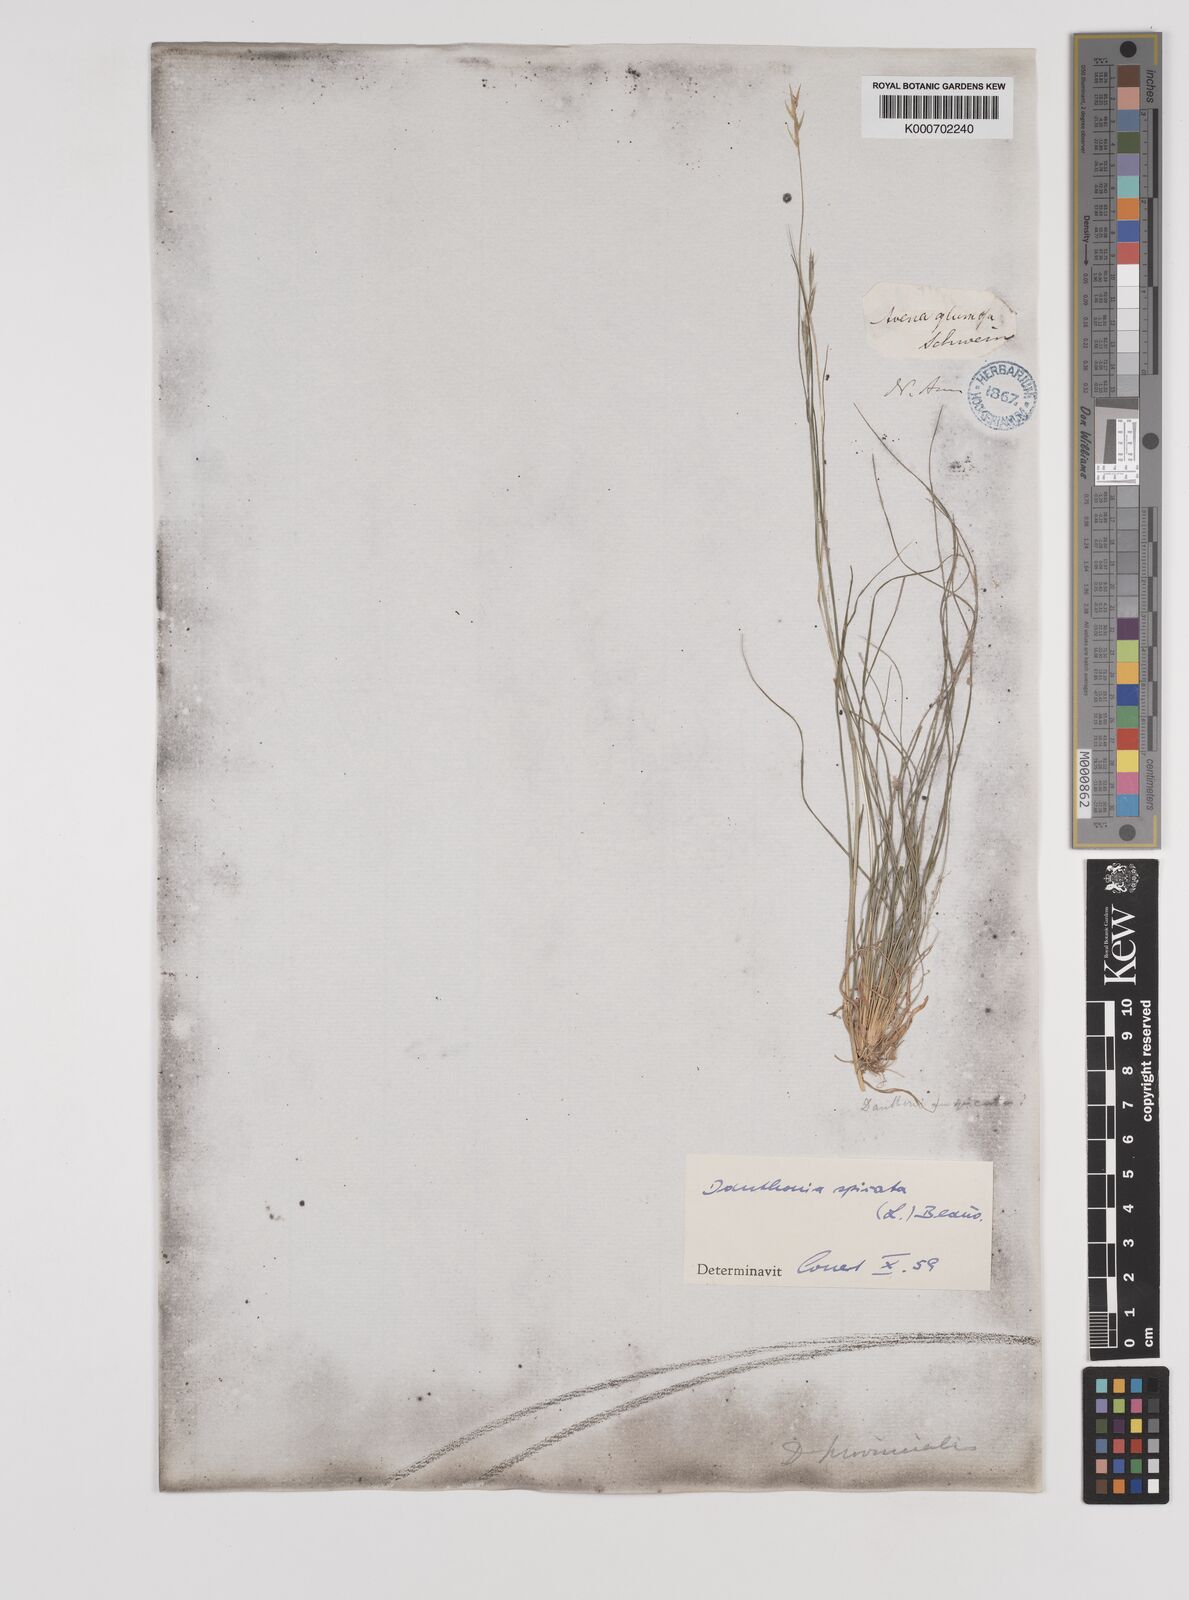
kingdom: Plantae
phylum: Tracheophyta
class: Liliopsida
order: Poales
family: Poaceae
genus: Danthonia
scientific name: Danthonia spicata
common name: Common wild oatgrass
